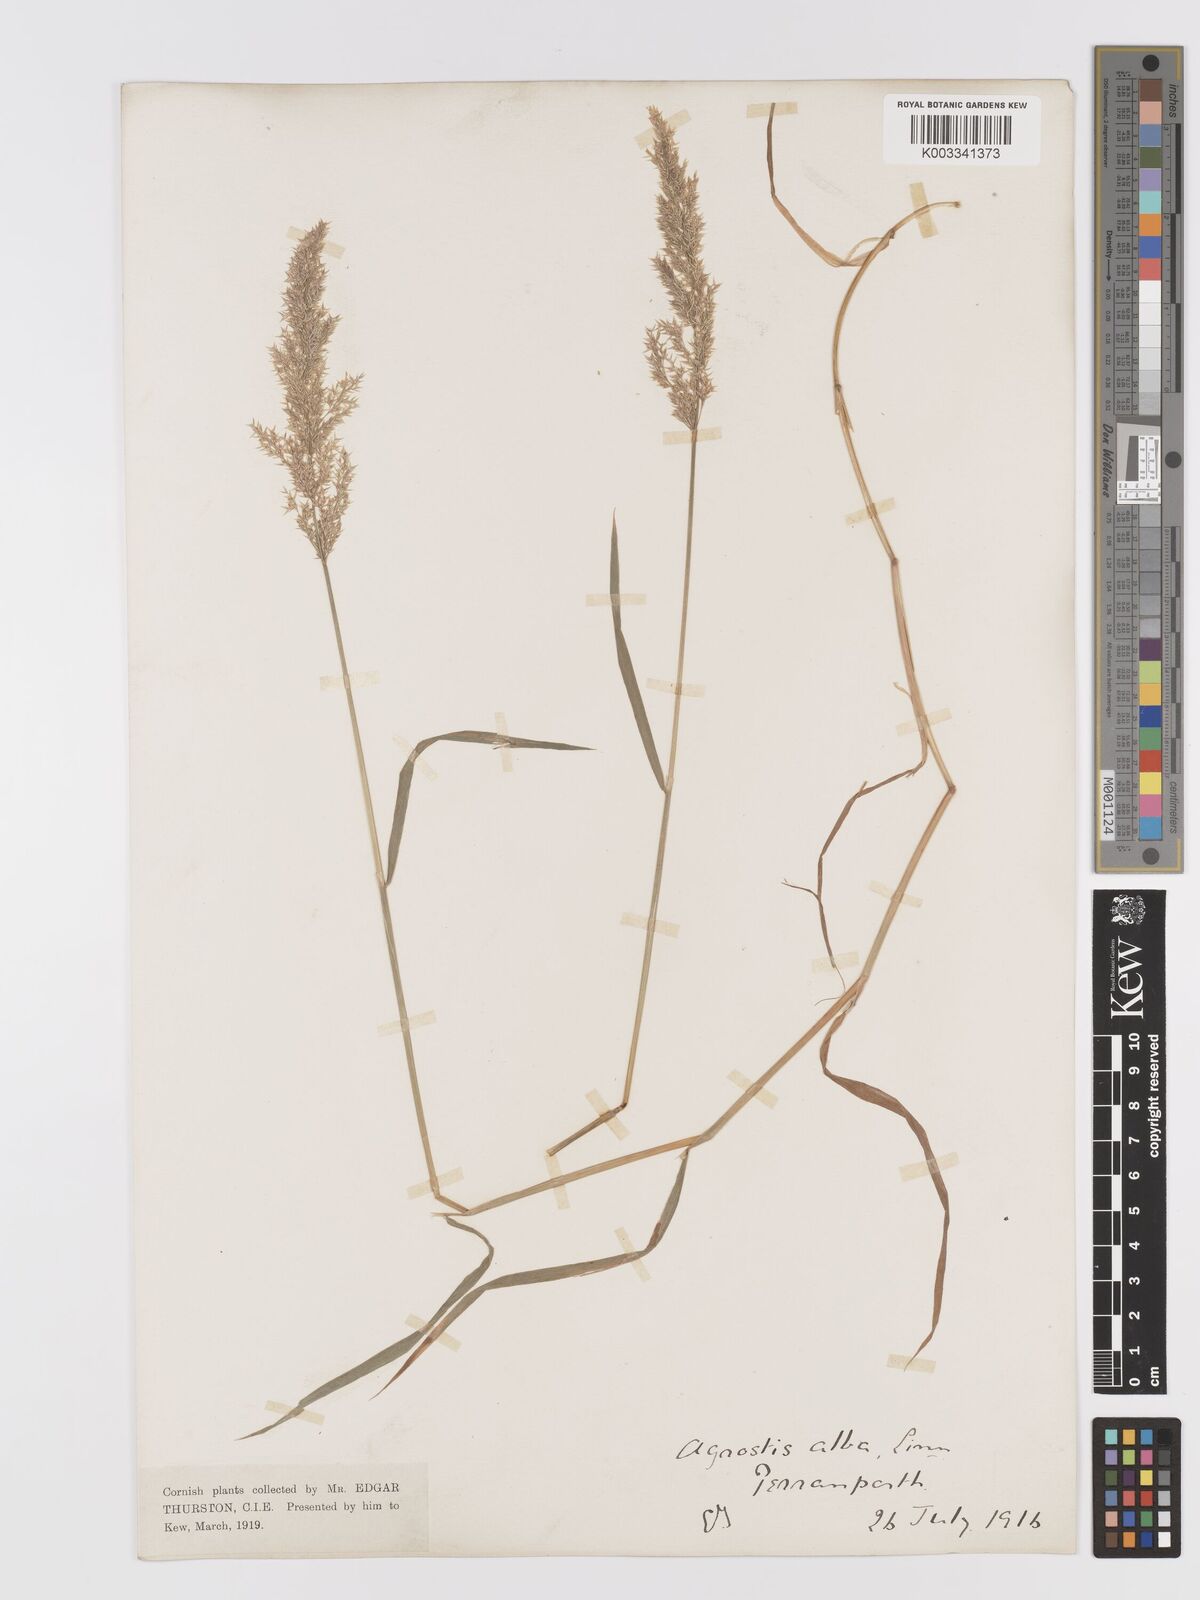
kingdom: Plantae
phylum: Tracheophyta
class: Liliopsida
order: Poales
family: Poaceae
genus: Agrostis
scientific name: Agrostis stolonifera
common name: Creeping bentgrass
